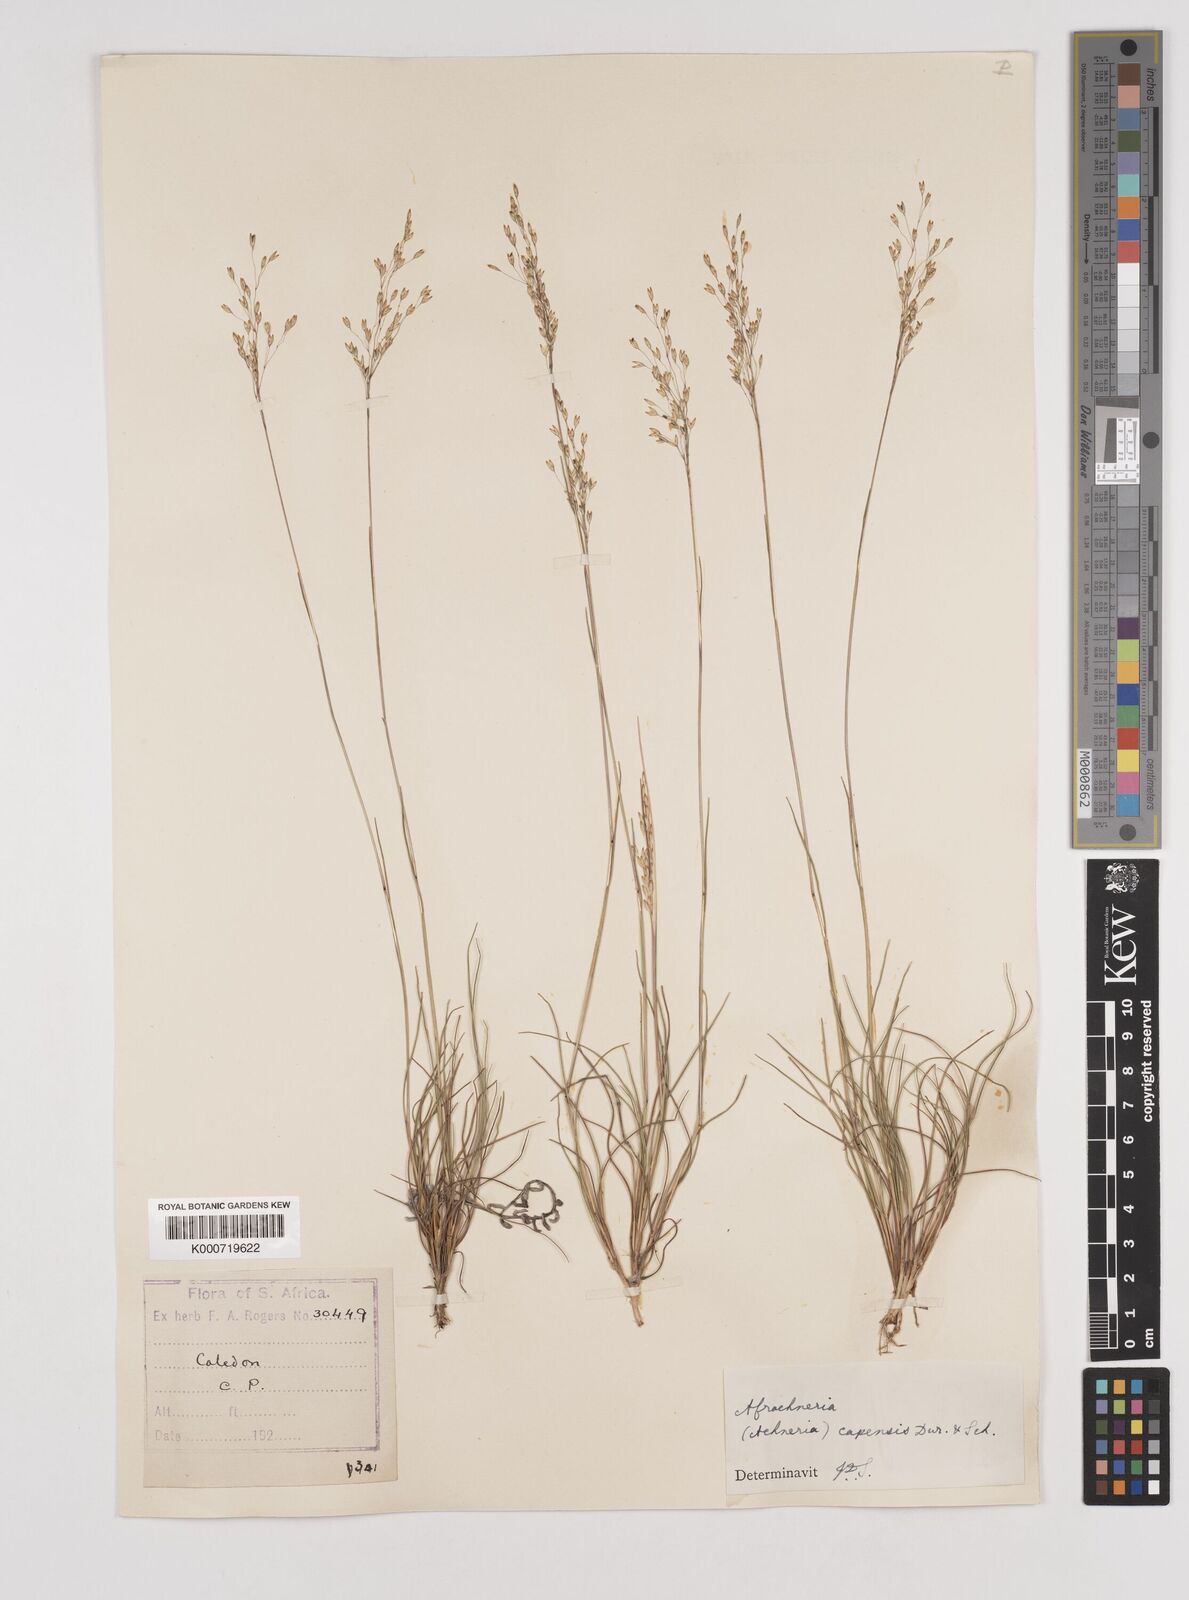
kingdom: Plantae
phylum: Tracheophyta
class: Liliopsida
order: Poales
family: Poaceae
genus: Pentameris
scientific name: Pentameris malouinensis
